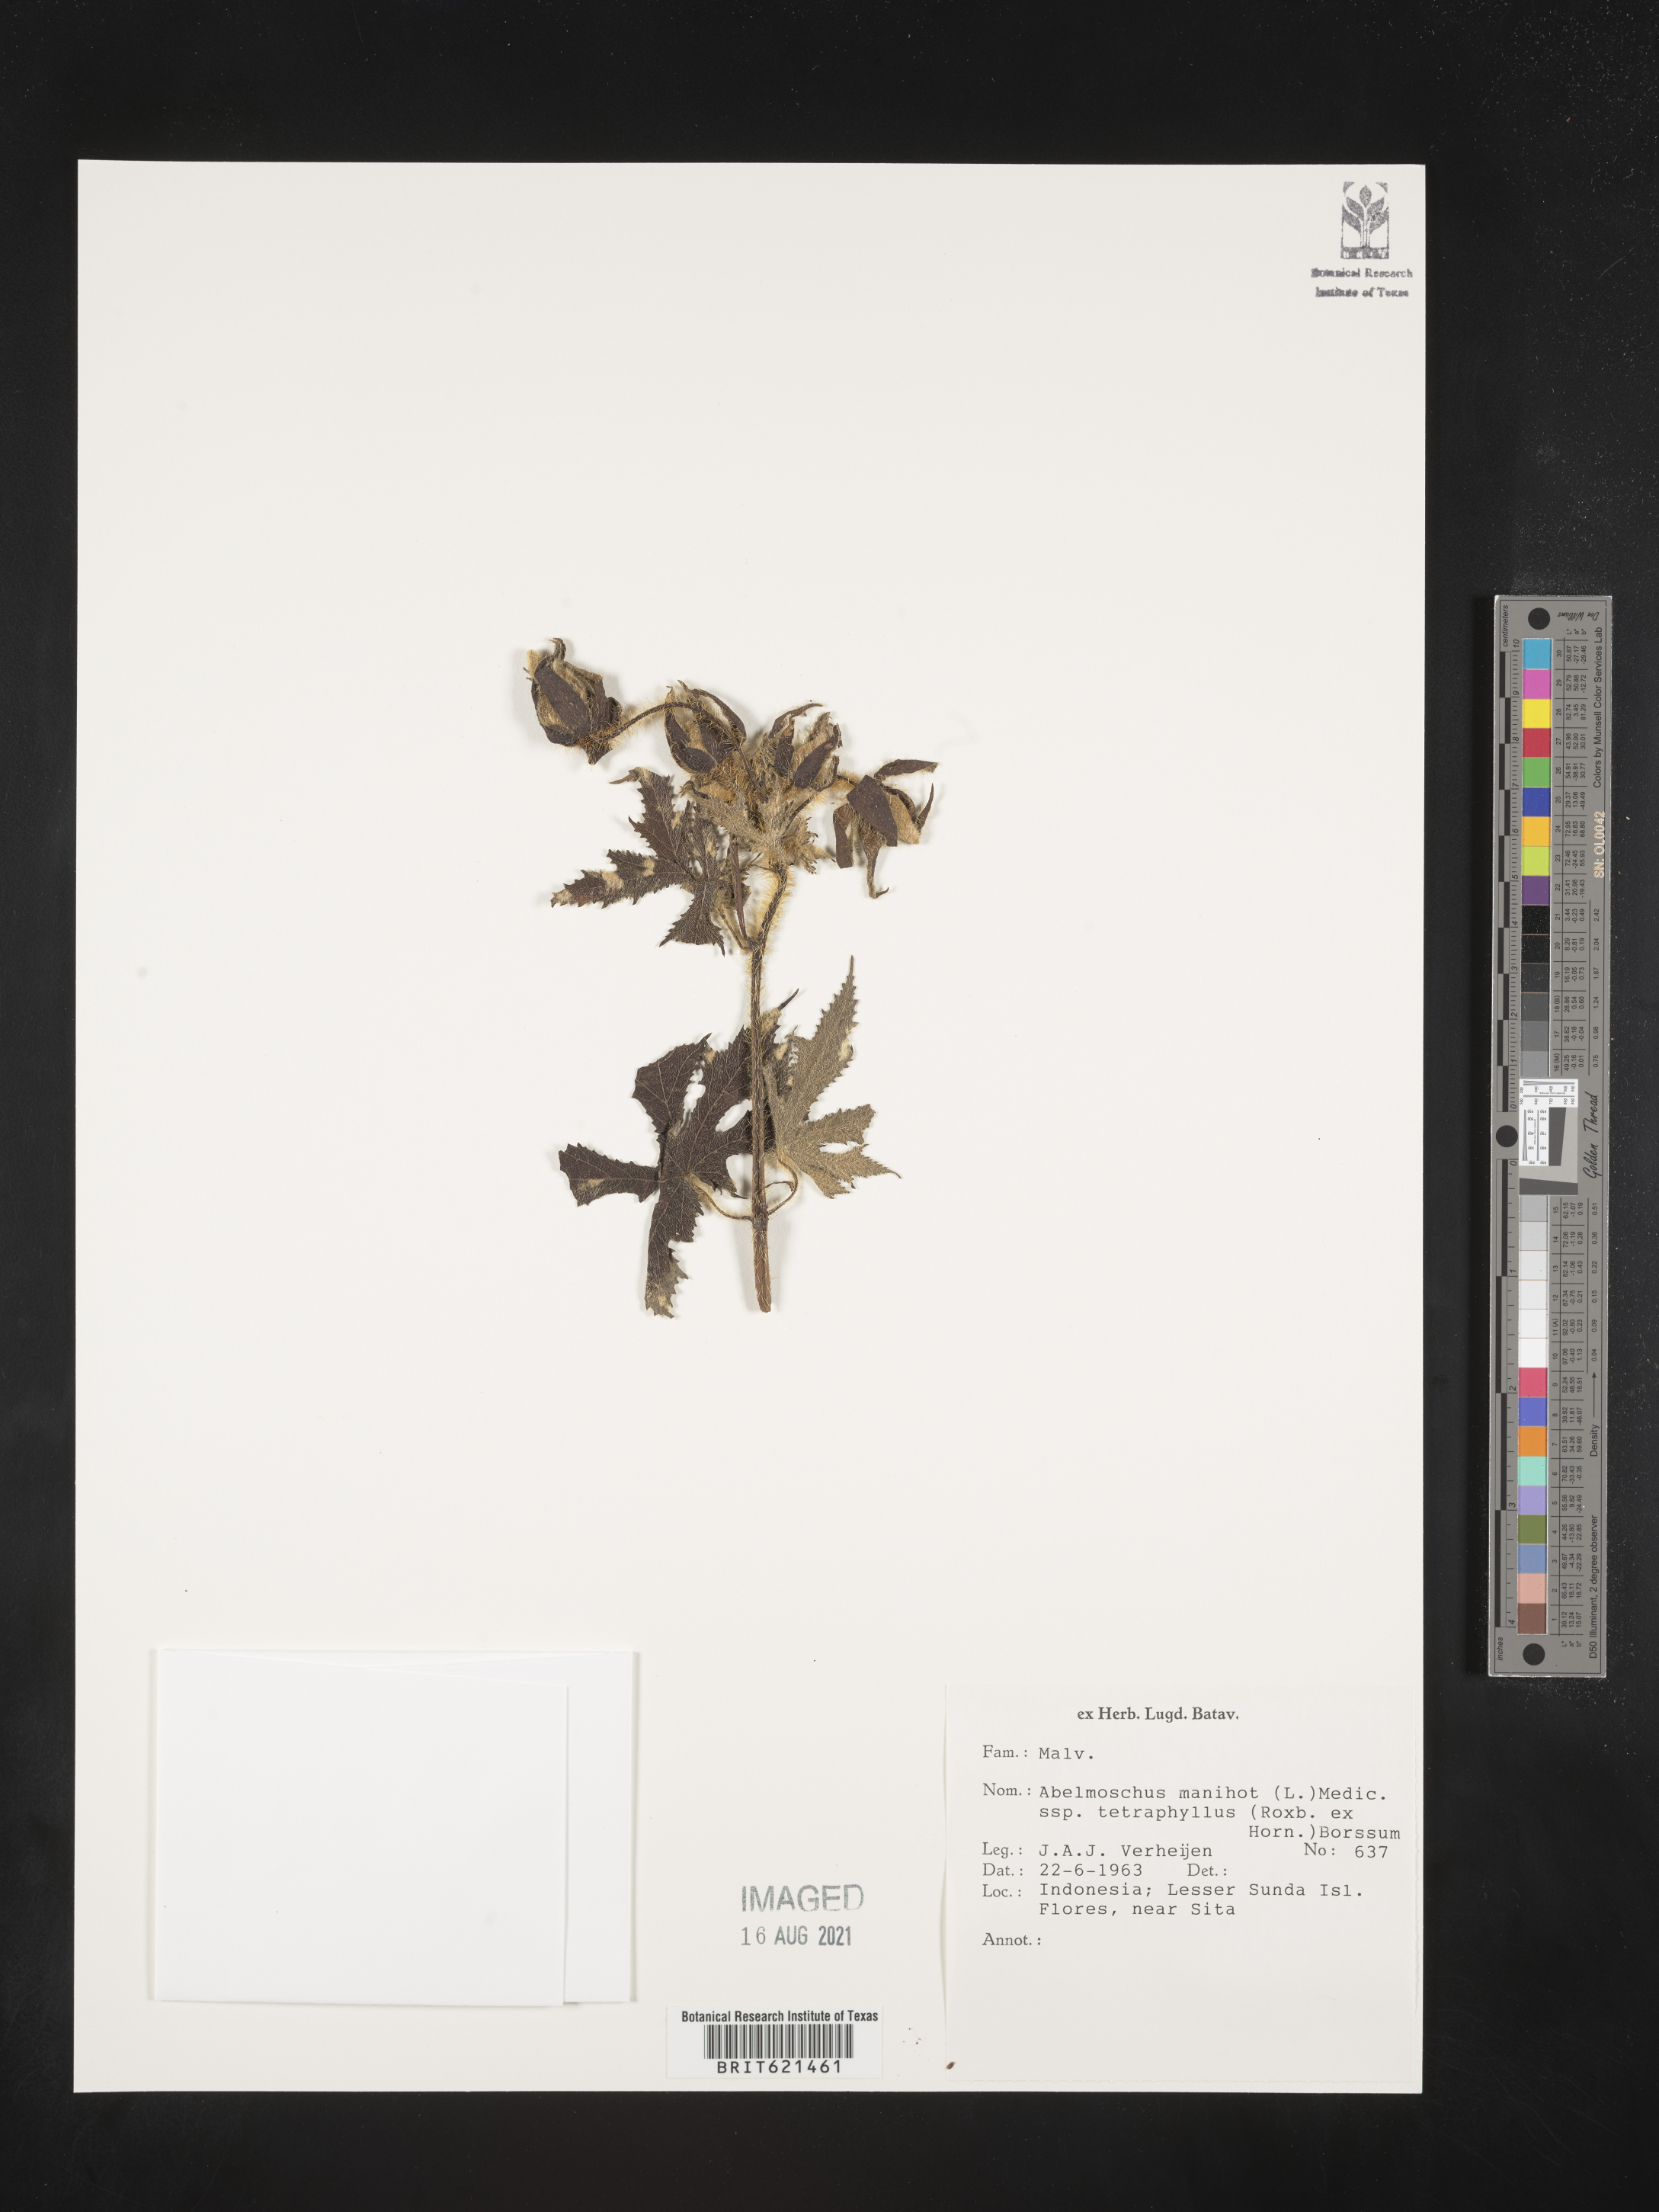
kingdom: Plantae
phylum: Tracheophyta
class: Magnoliopsida
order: Malvales
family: Malvaceae
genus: Abelmoschus
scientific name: Abelmoschus manihot
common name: Sunset muskmallow
